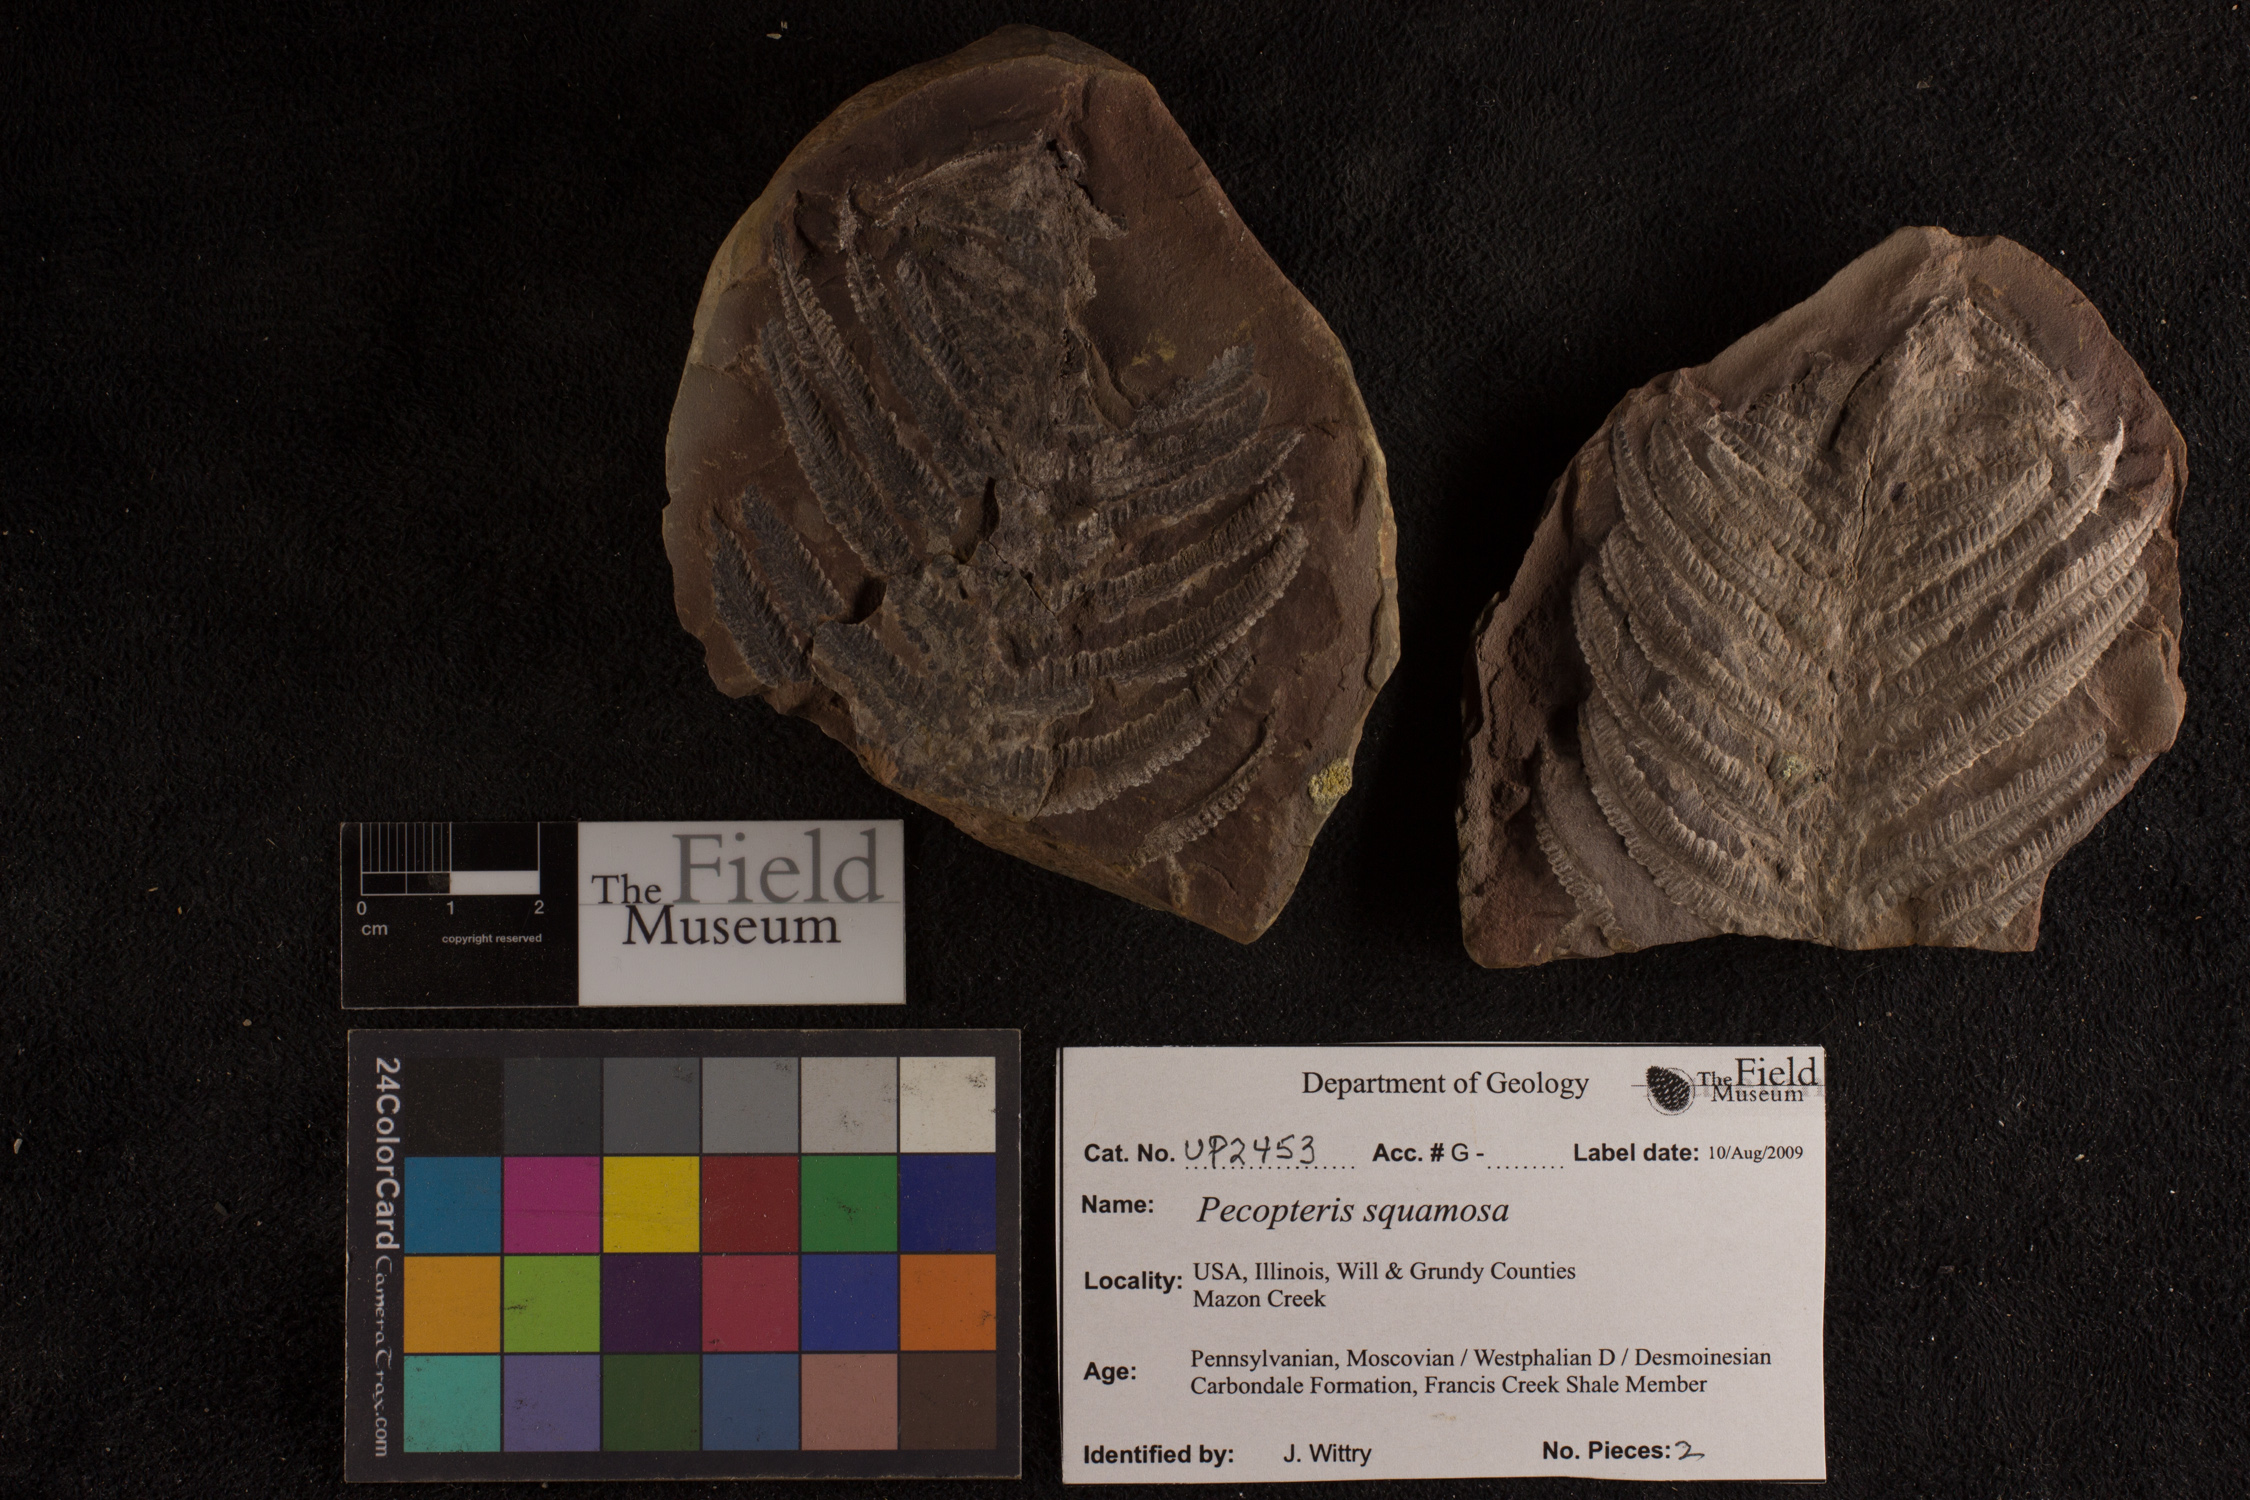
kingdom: Plantae
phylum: Tracheophyta
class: Polypodiopsida
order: Marattiales
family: Asterothecaceae
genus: Pecopteris
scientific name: Pecopteris
